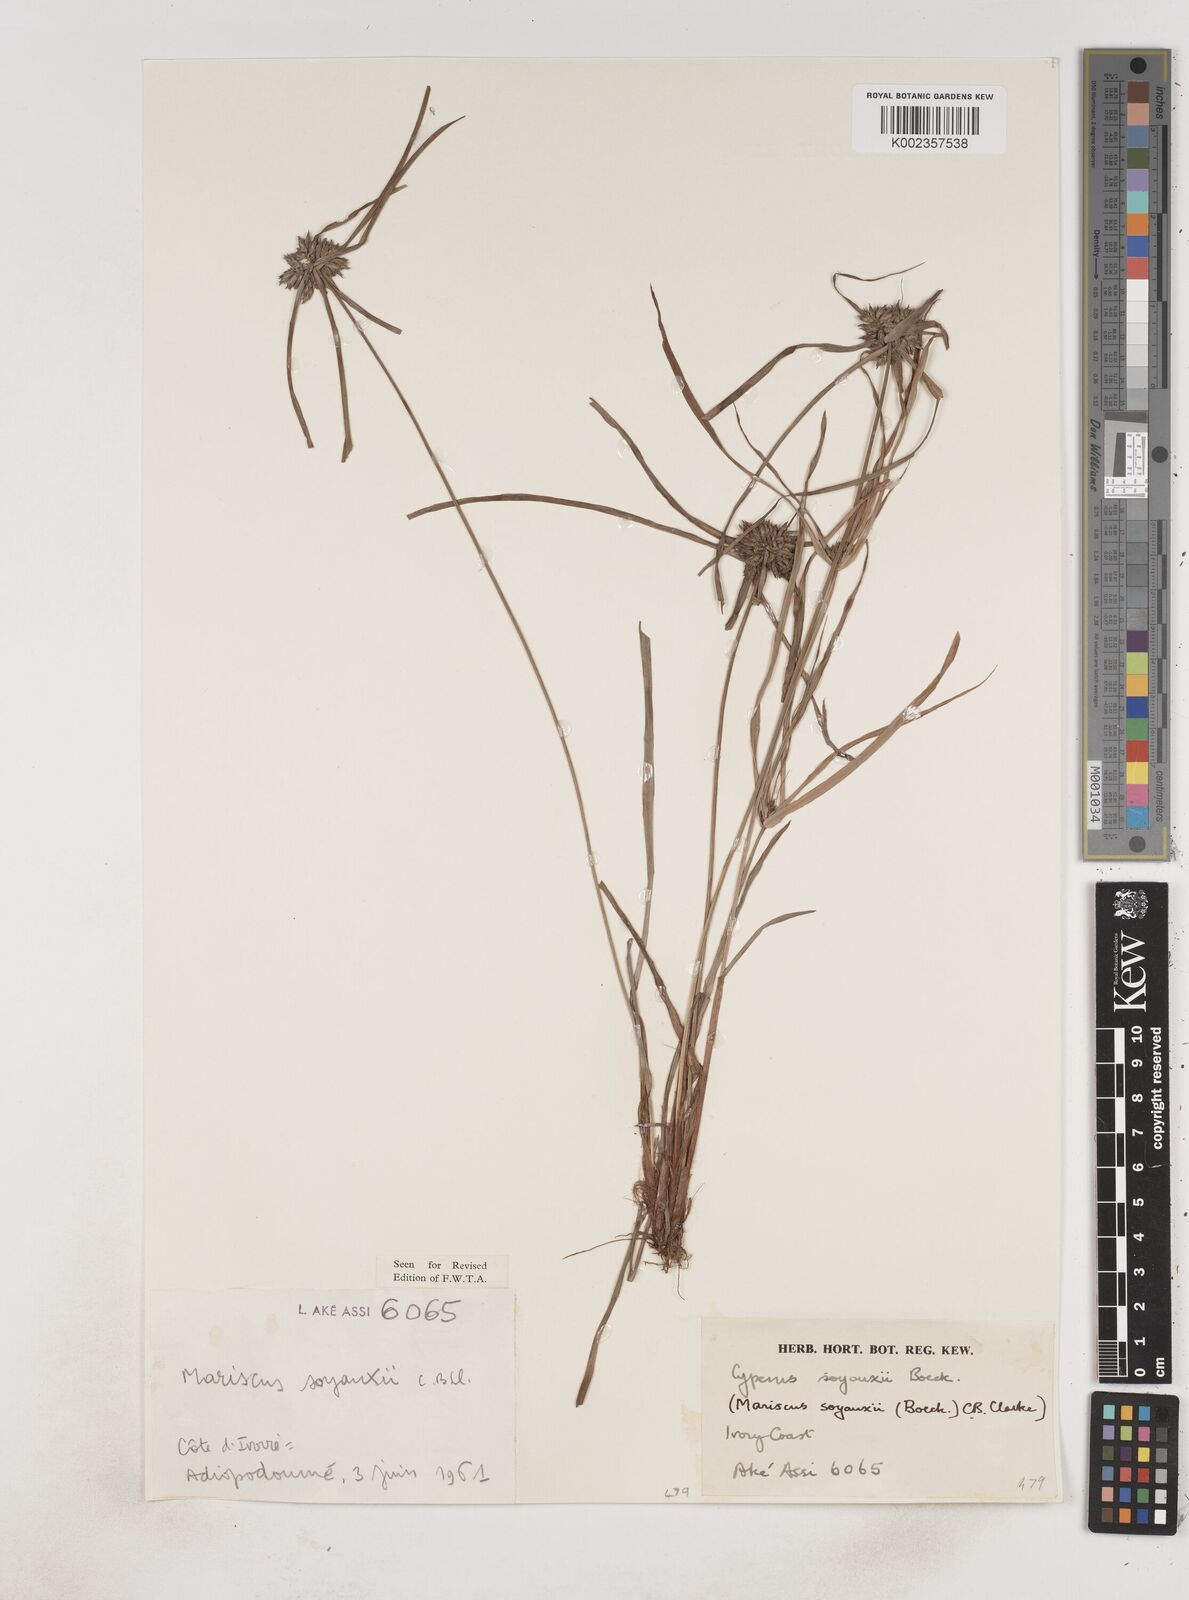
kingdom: Plantae
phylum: Tracheophyta
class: Liliopsida
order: Poales
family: Cyperaceae
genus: Cyperus
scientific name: Cyperus soyauxii
